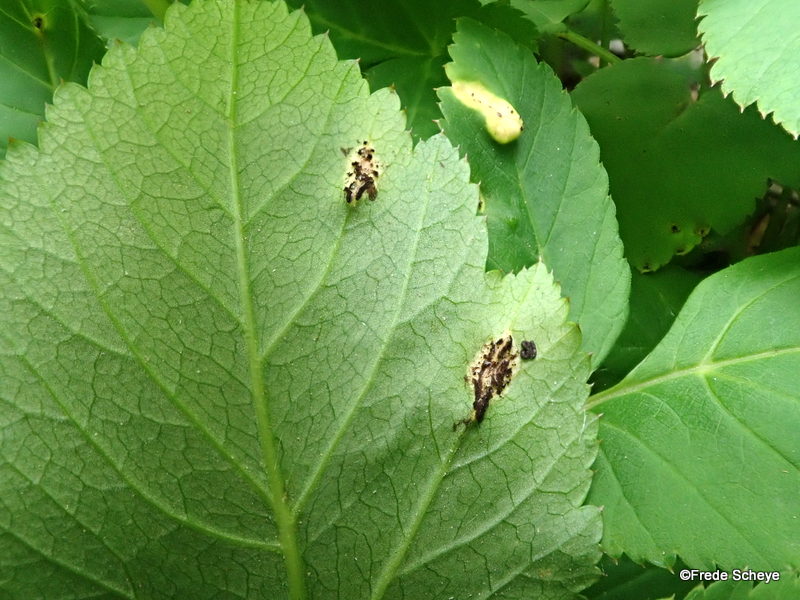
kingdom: Fungi
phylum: Basidiomycota
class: Pucciniomycetes
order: Pucciniales
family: Pucciniaceae
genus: Puccinia
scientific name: Puccinia
